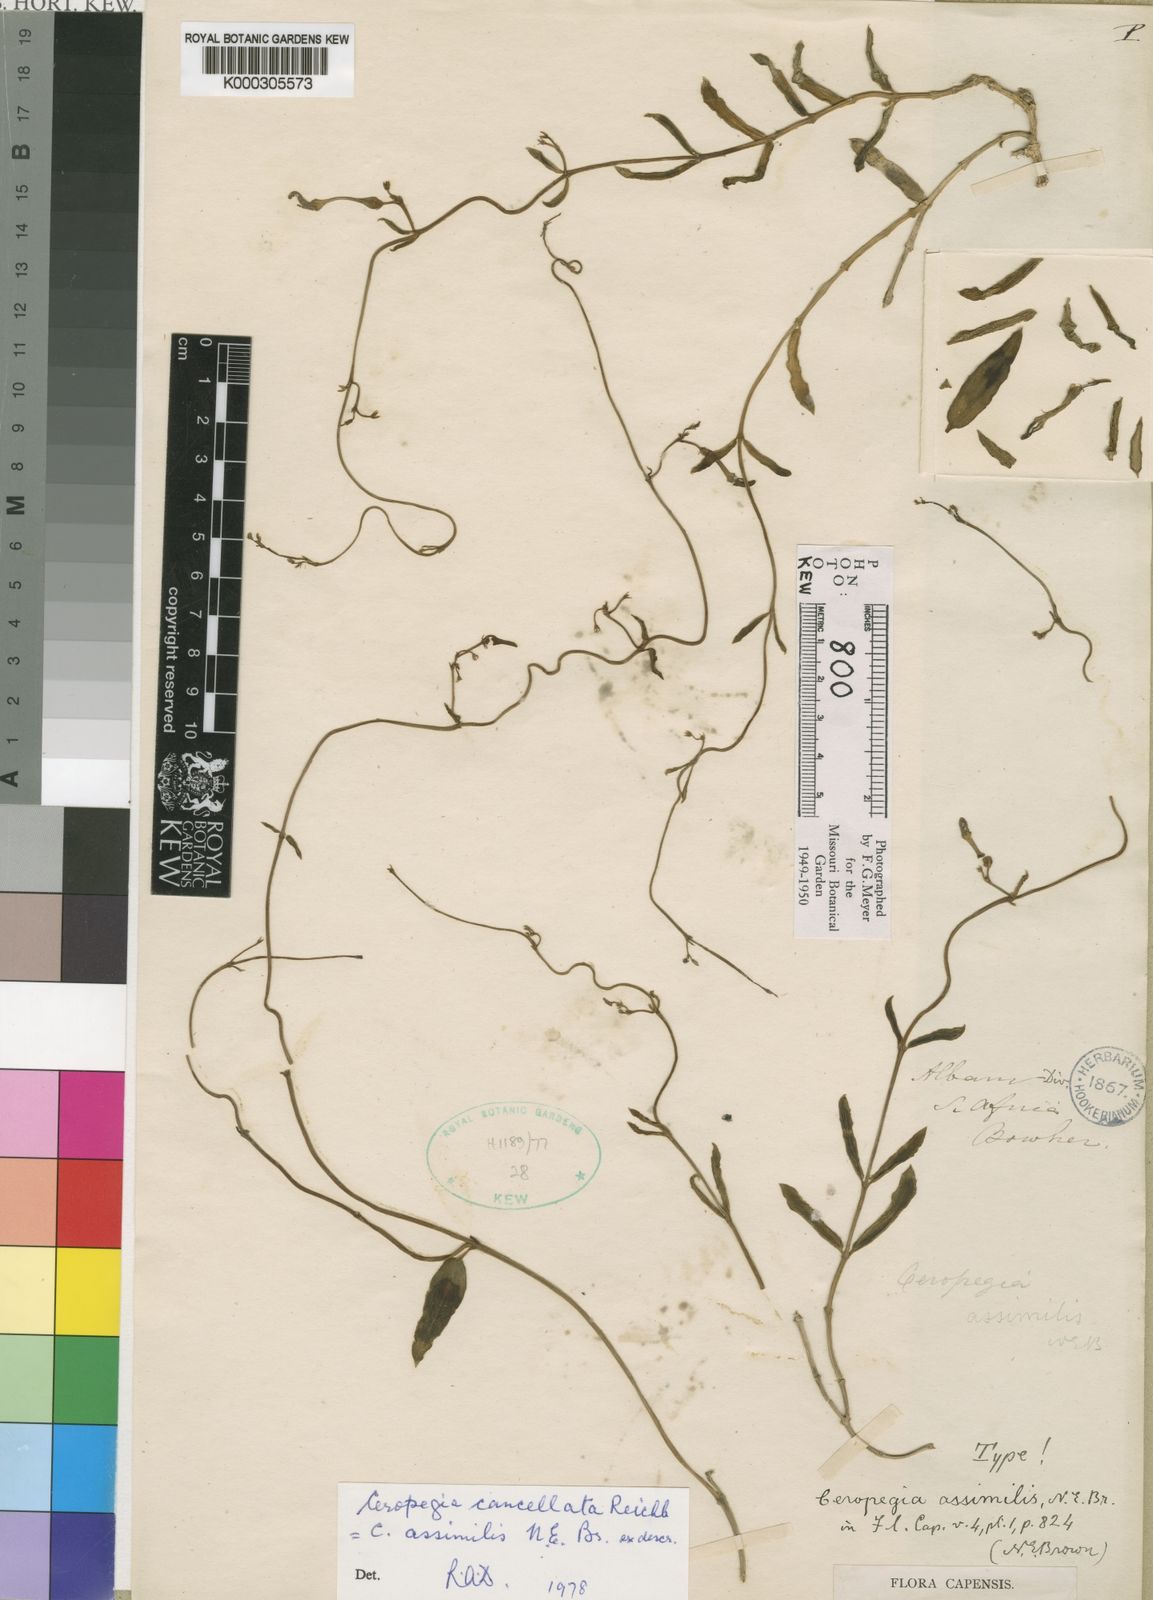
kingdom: Plantae
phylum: Tracheophyta
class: Magnoliopsida
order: Gentianales
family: Apocynaceae
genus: Ceropegia
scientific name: Ceropegia cancellata
